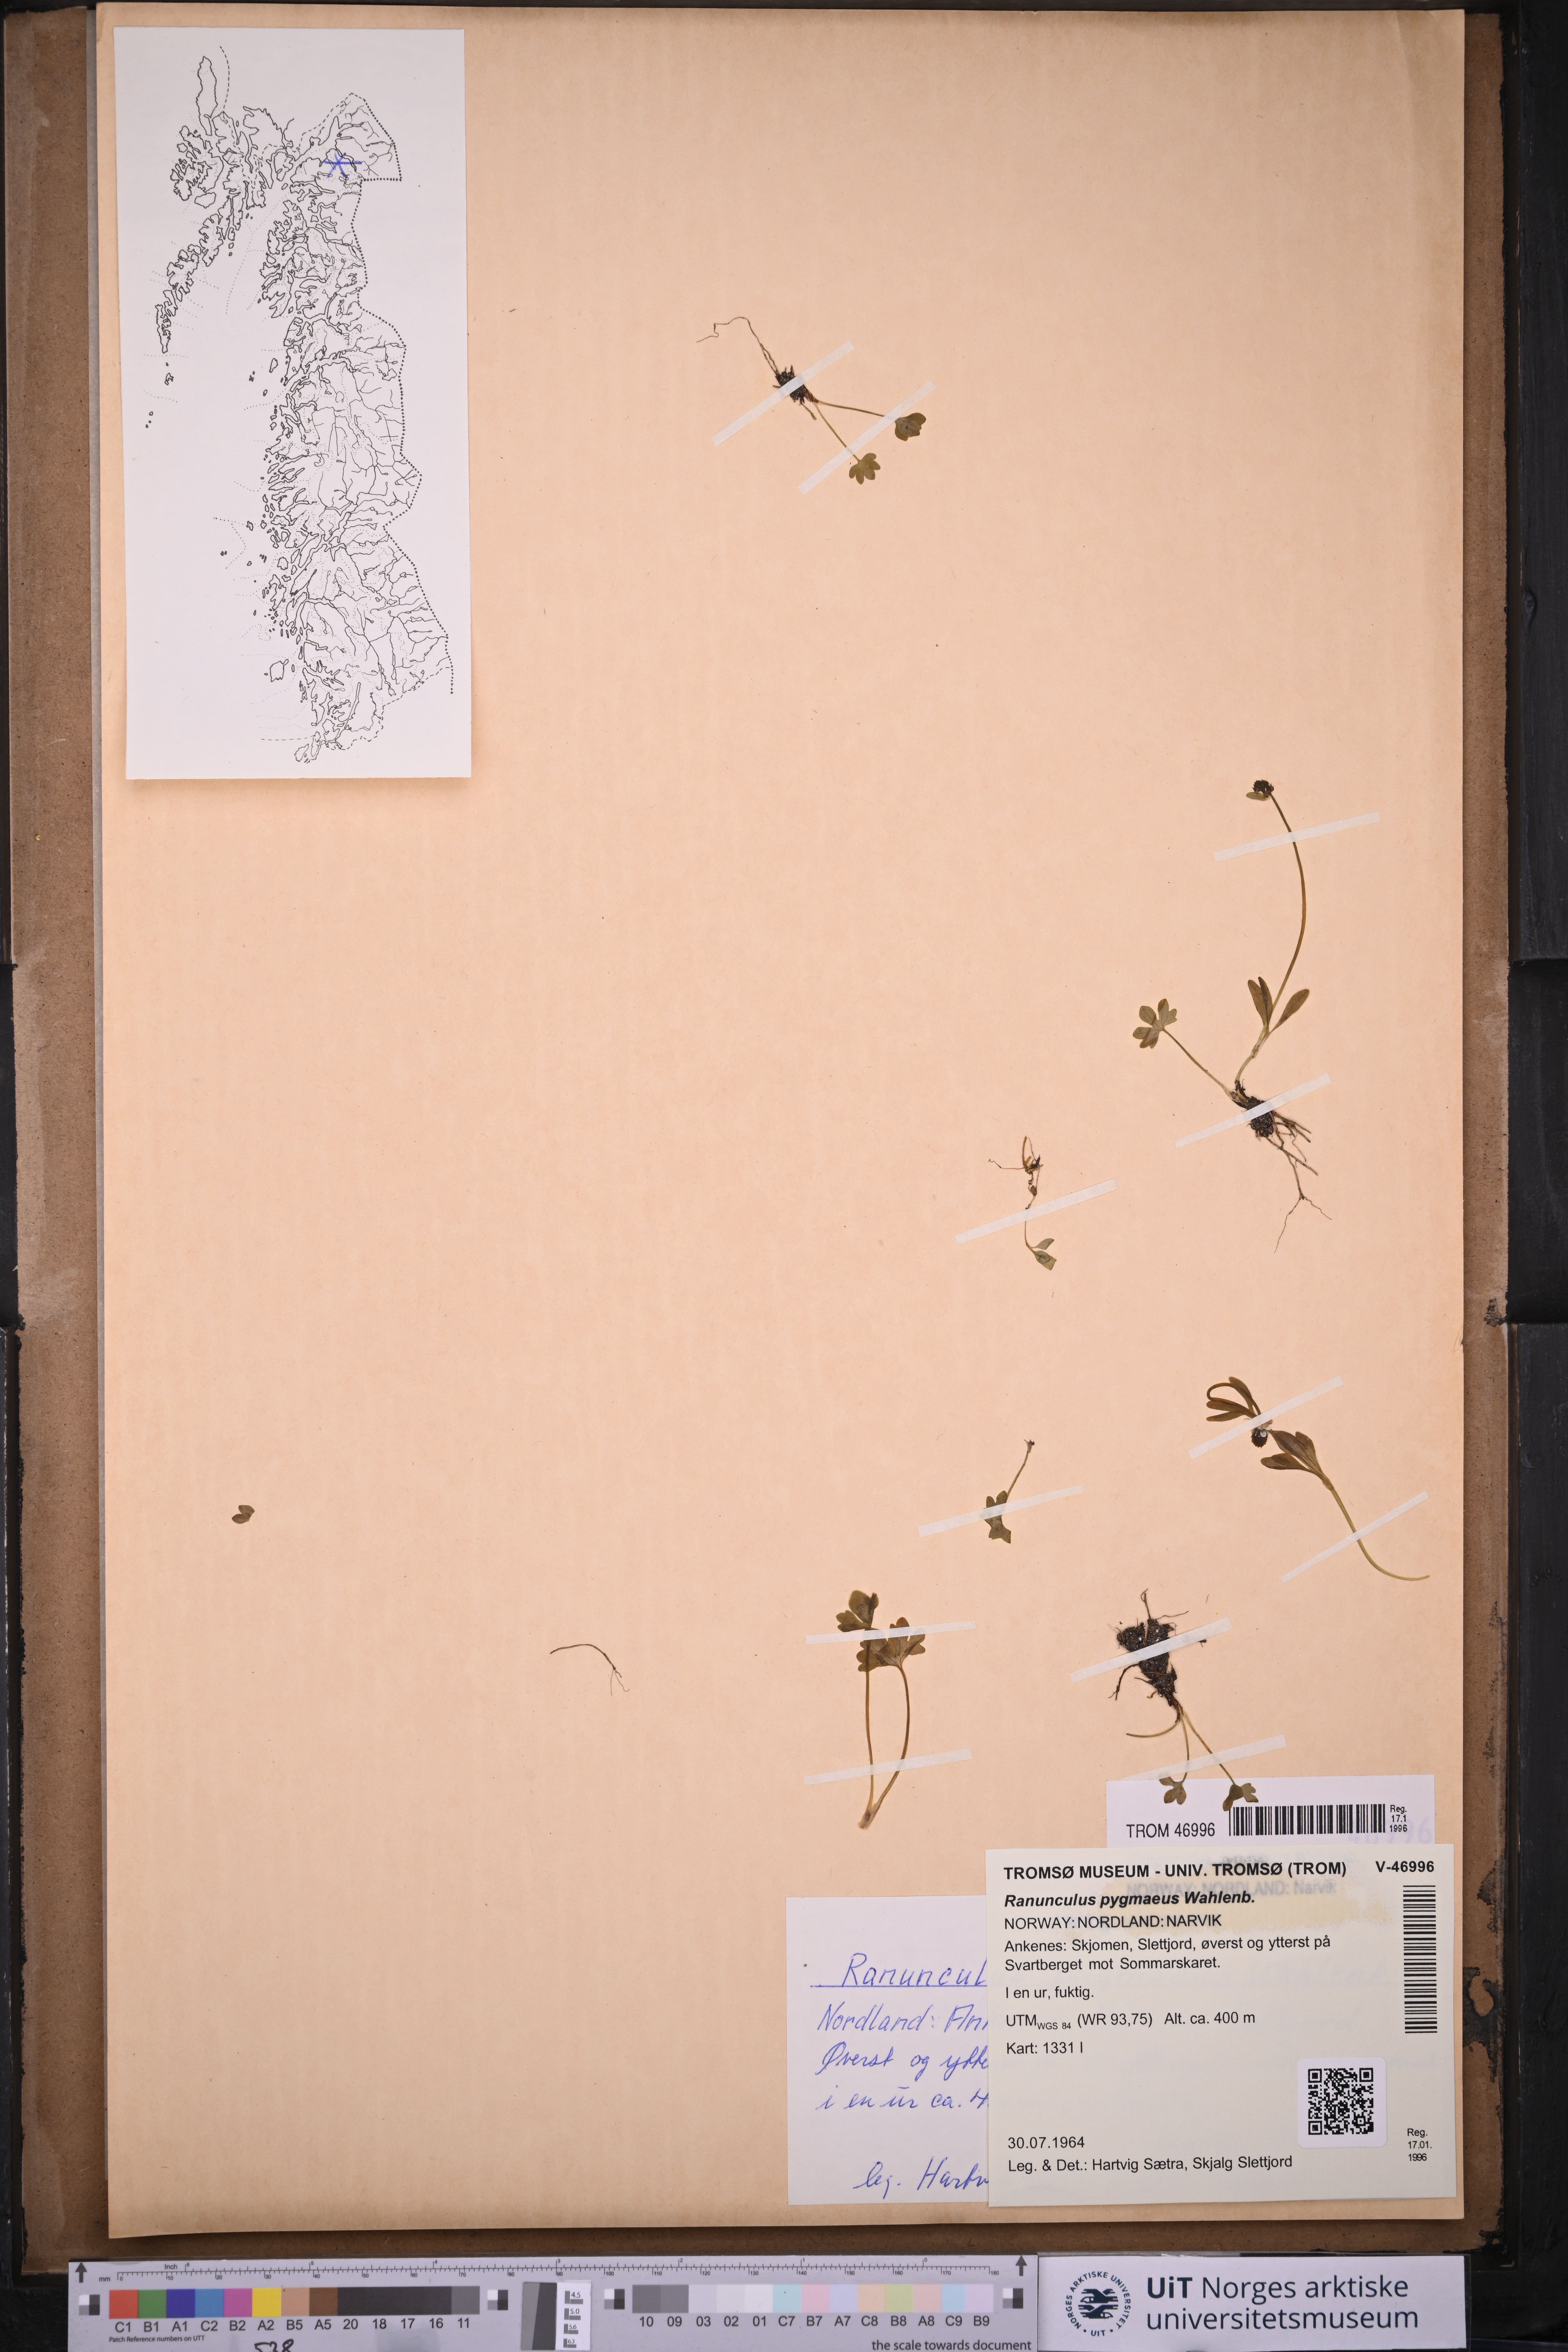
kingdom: Plantae
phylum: Tracheophyta
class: Magnoliopsida
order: Ranunculales
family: Ranunculaceae
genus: Ranunculus
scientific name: Ranunculus pygmaeus
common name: Dwarf buttercup
